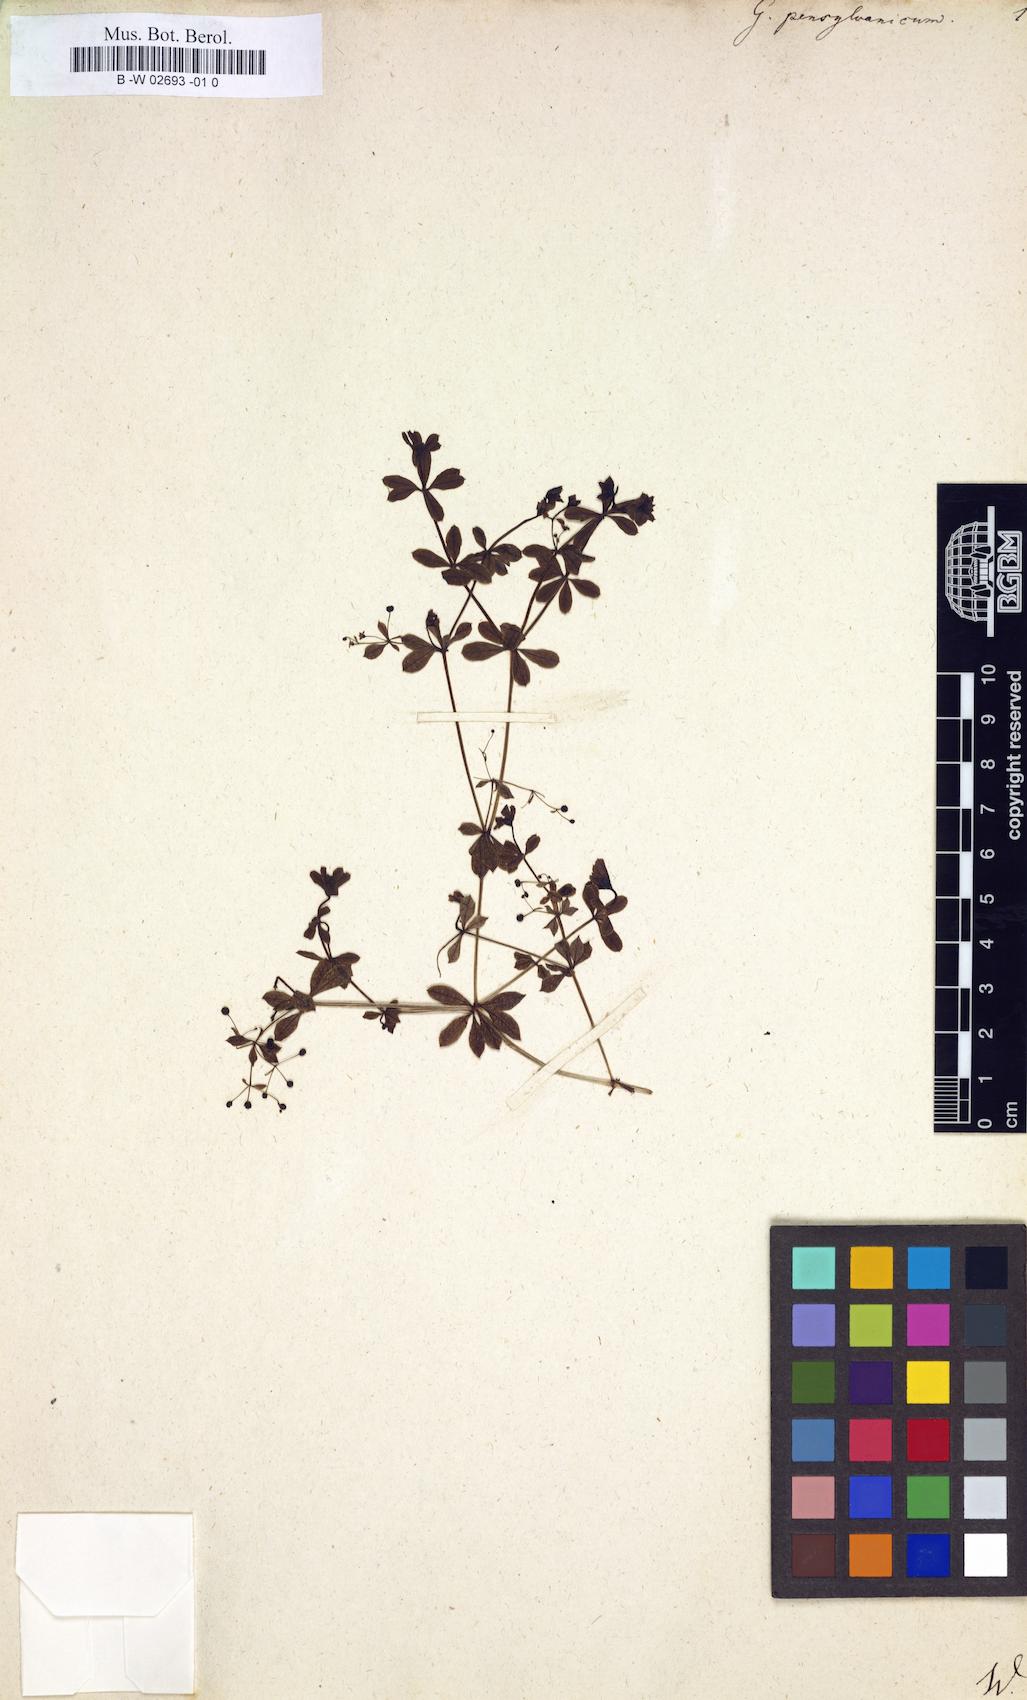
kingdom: Plantae
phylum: Tracheophyta
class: Magnoliopsida
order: Gentianales
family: Rubiaceae
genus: Galium
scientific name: Galium asprellum
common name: Rough bedstraw
